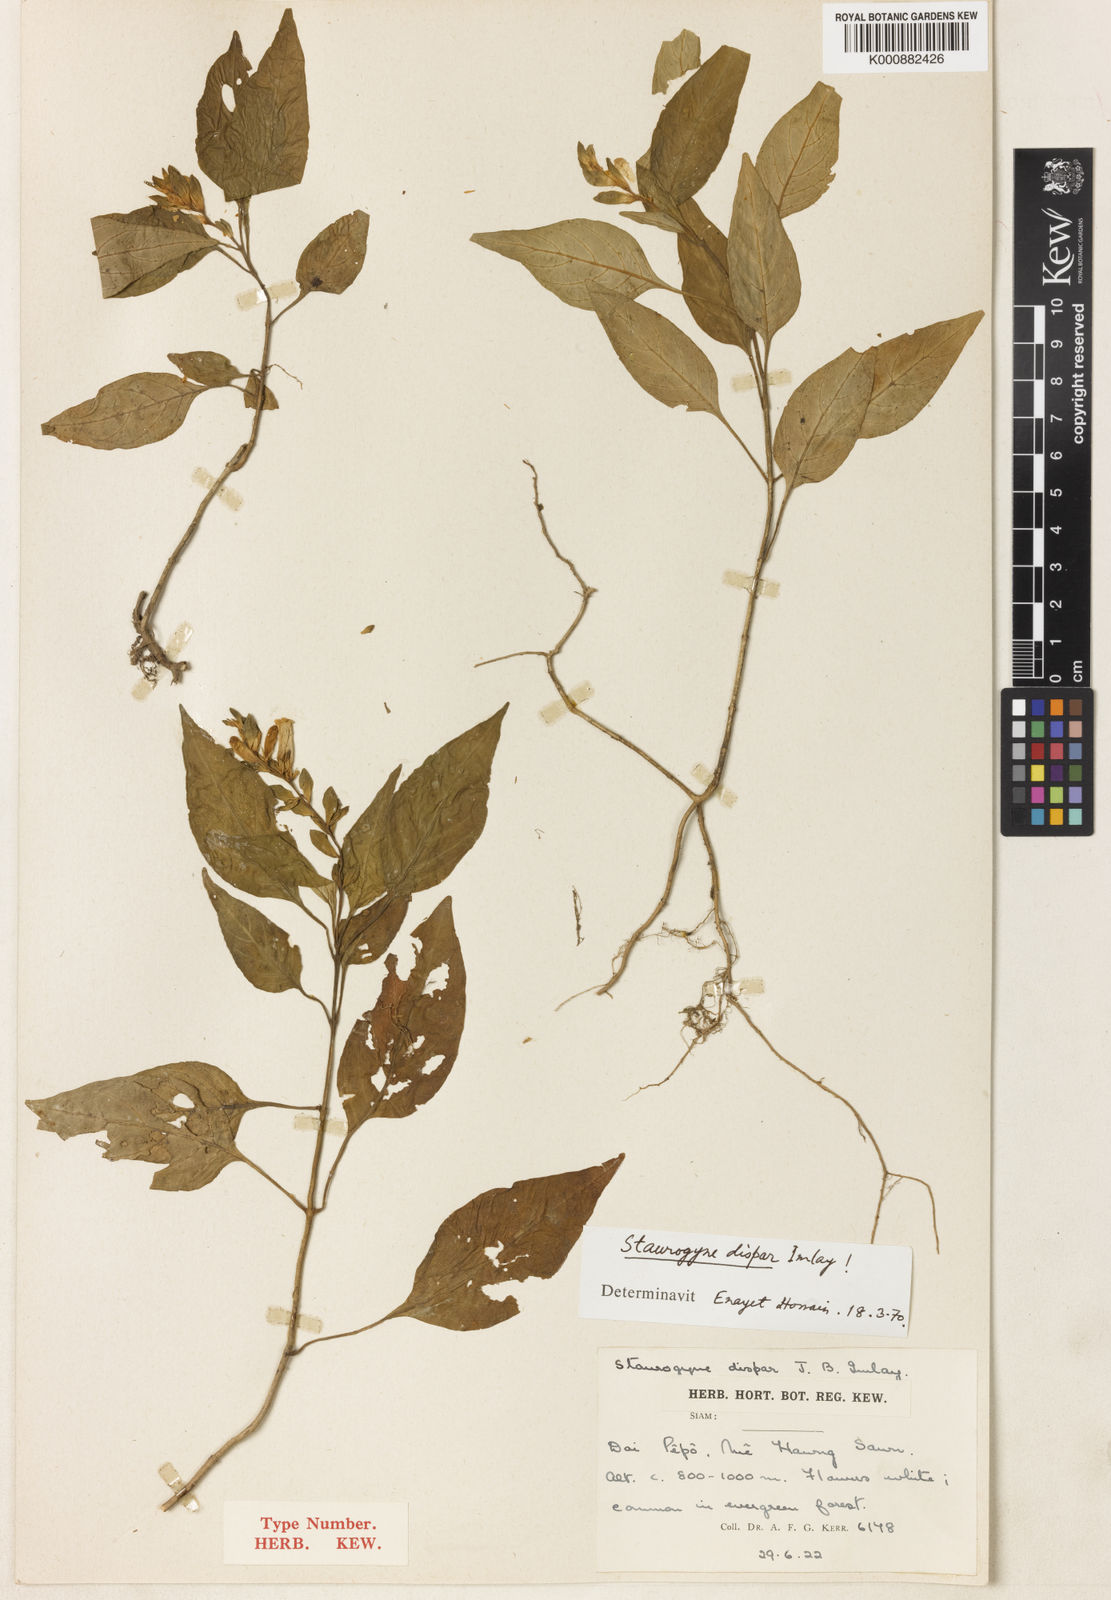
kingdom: Plantae
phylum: Tracheophyta
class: Magnoliopsida
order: Lamiales
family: Acanthaceae
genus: Staurogyne
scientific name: Staurogyne dispar
